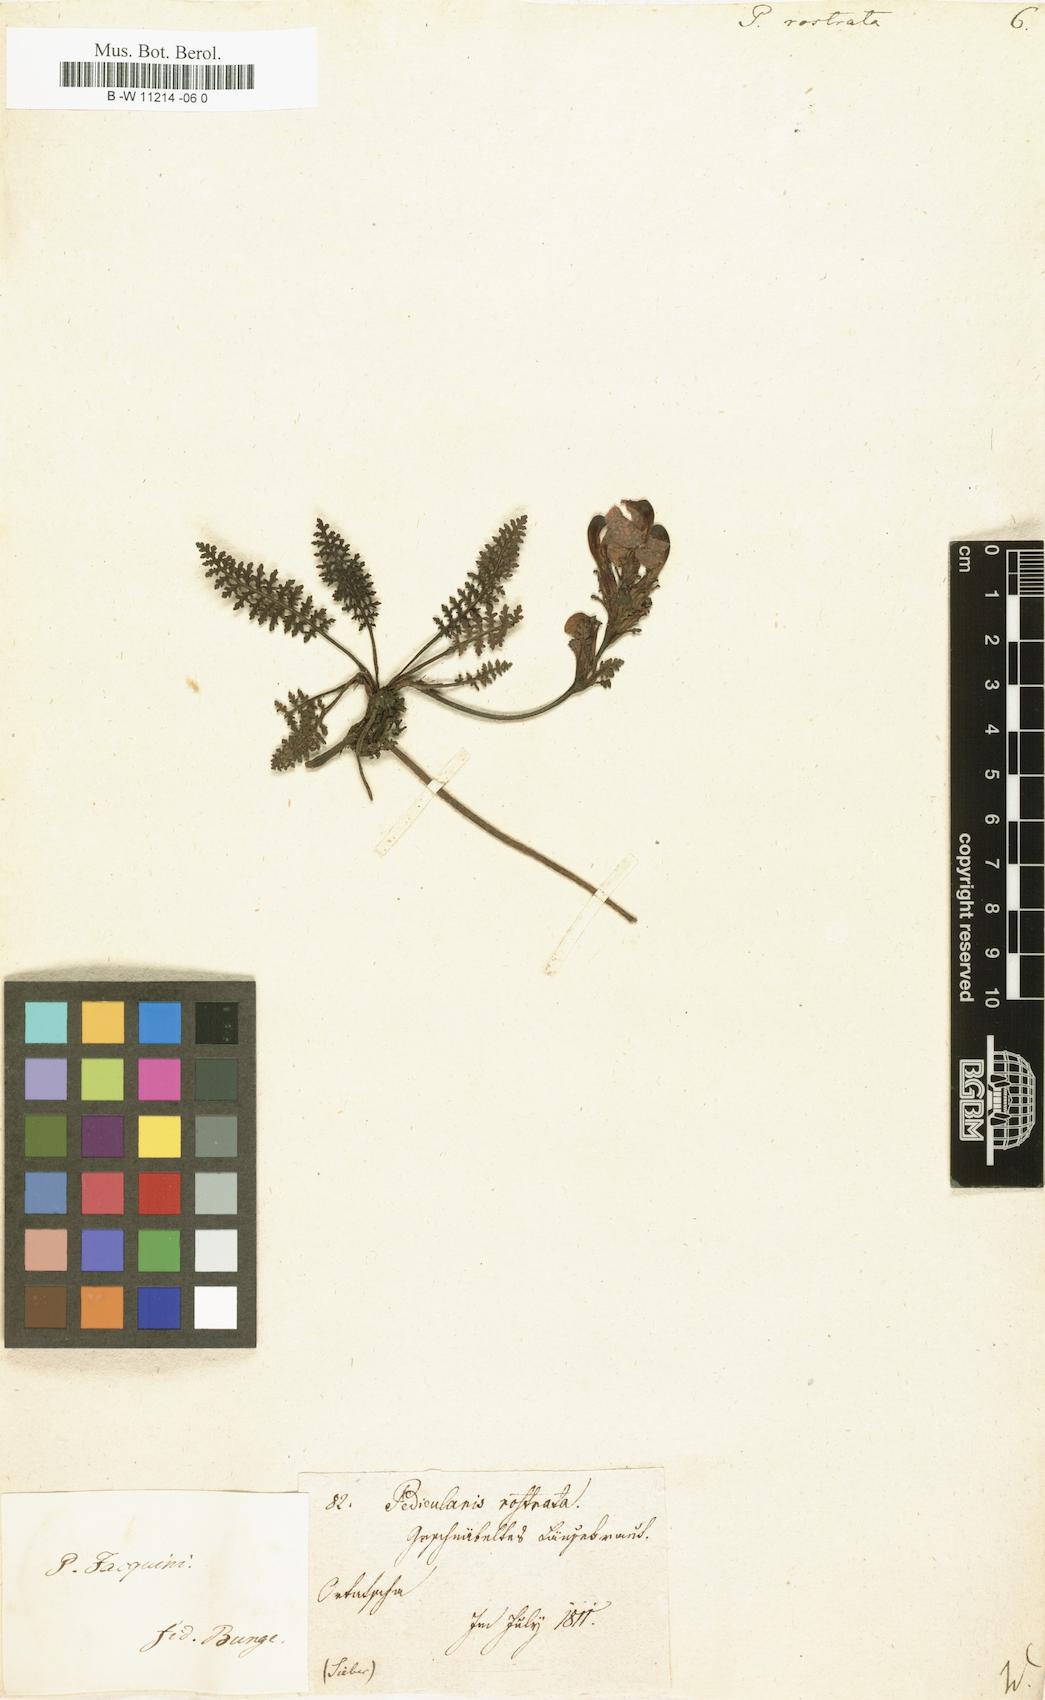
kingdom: Plantae
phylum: Tracheophyta
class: Magnoliopsida
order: Lamiales
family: Orobanchaceae
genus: Pedicularis
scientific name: Pedicularis
